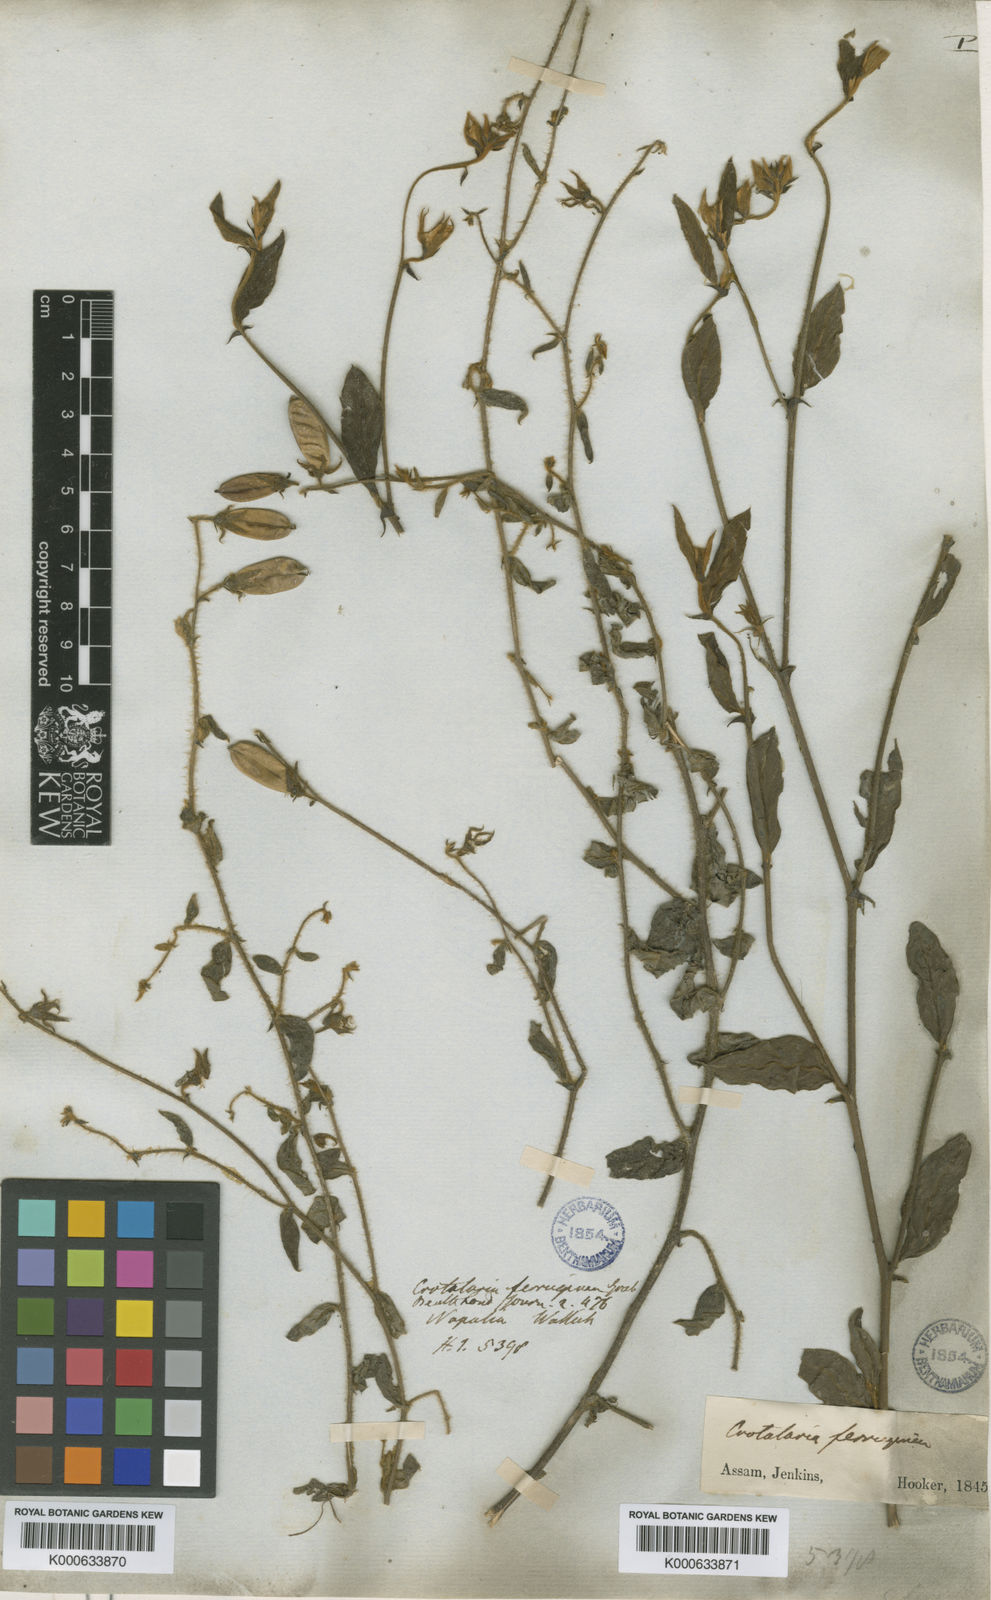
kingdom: Plantae
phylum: Tracheophyta
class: Magnoliopsida
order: Fabales
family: Fabaceae
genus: Crotalaria
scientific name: Crotalaria lejoloba
